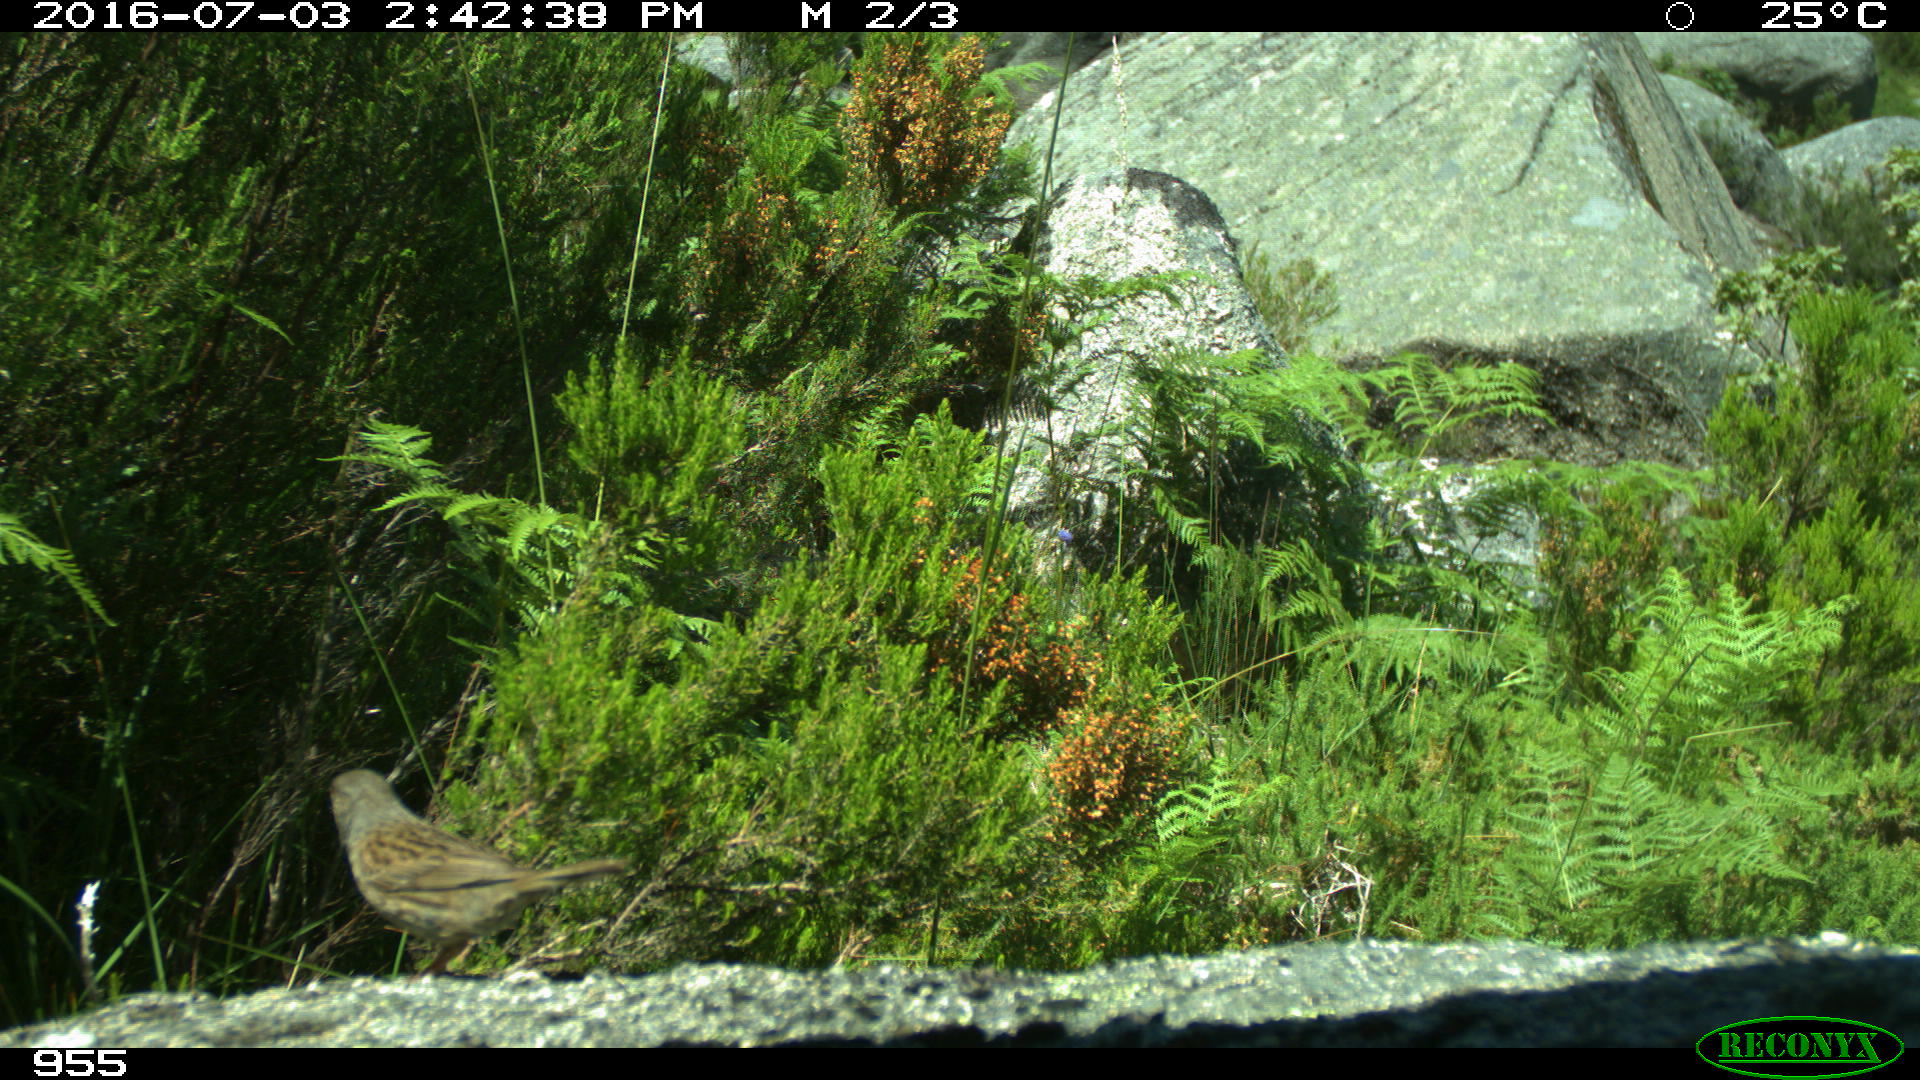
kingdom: Animalia
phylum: Chordata
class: Aves
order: Passeriformes
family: Prunellidae
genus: Prunella
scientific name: Prunella modularis
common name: Dunnock
